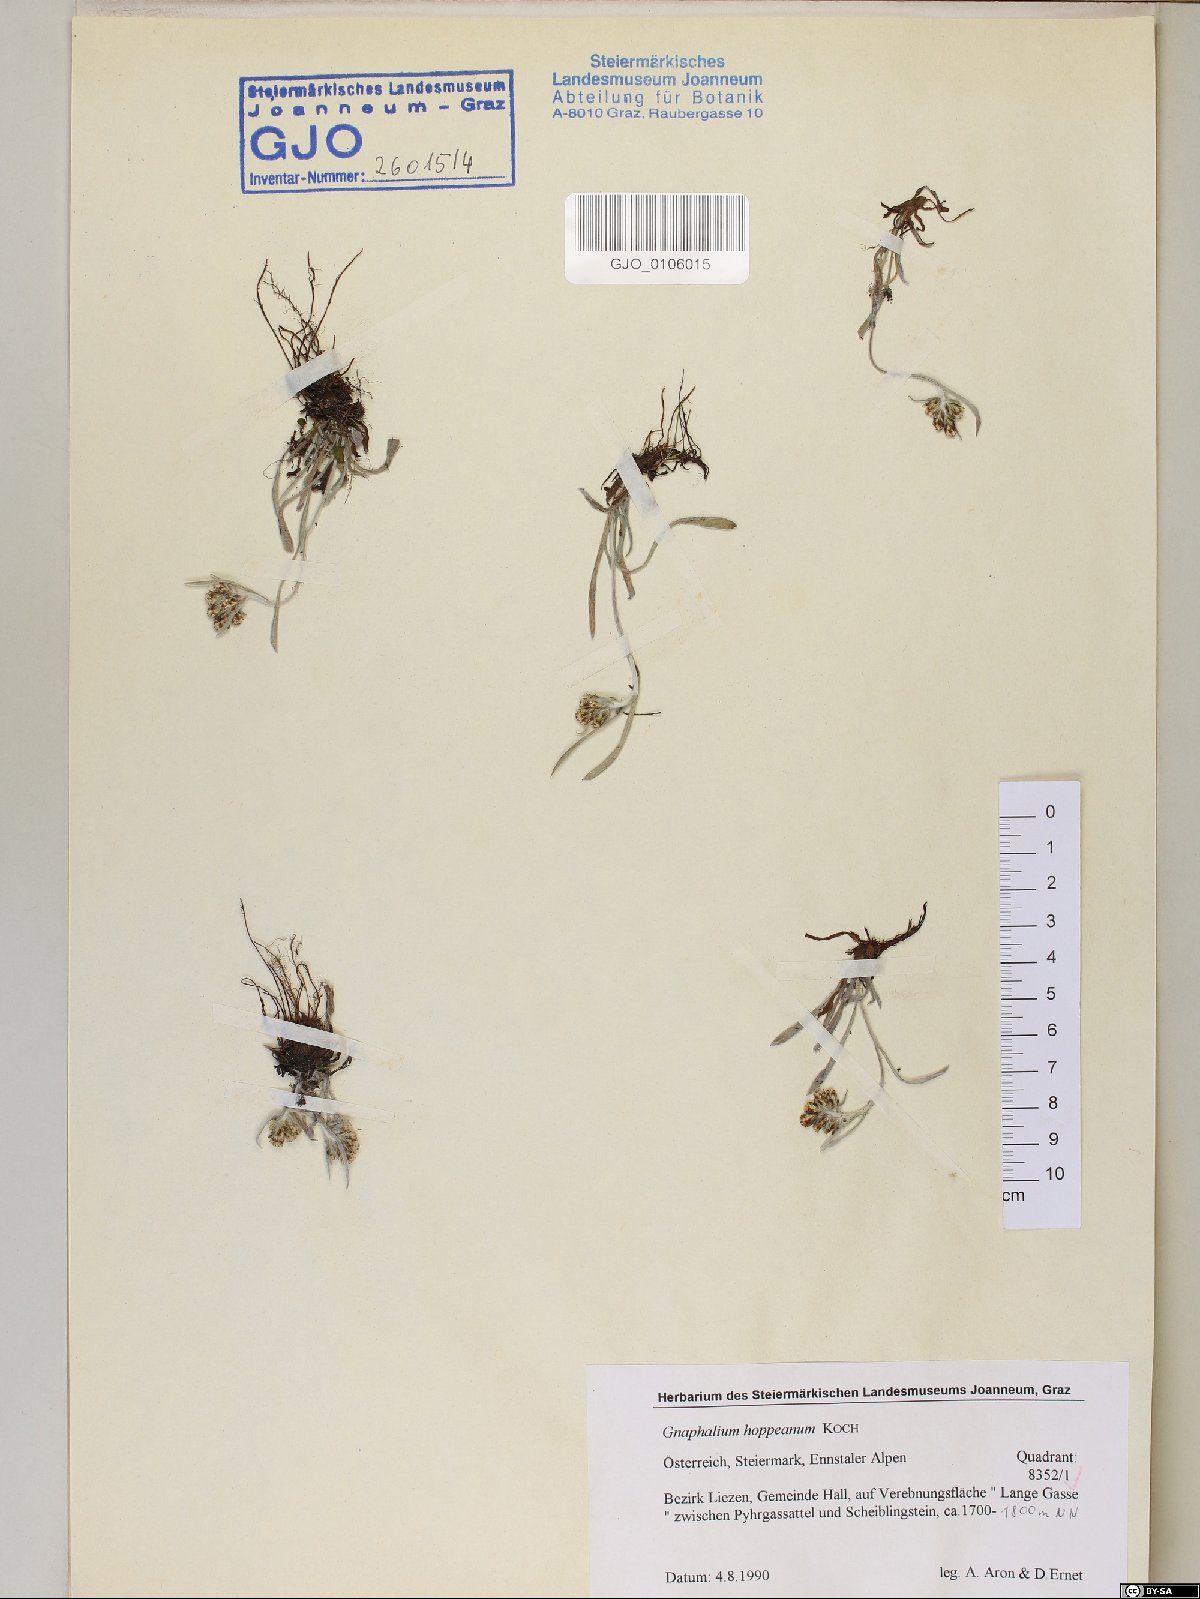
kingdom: Plantae
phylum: Tracheophyta
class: Magnoliopsida
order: Asterales
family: Asteraceae
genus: Omalotheca
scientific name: Omalotheca hoppeana
